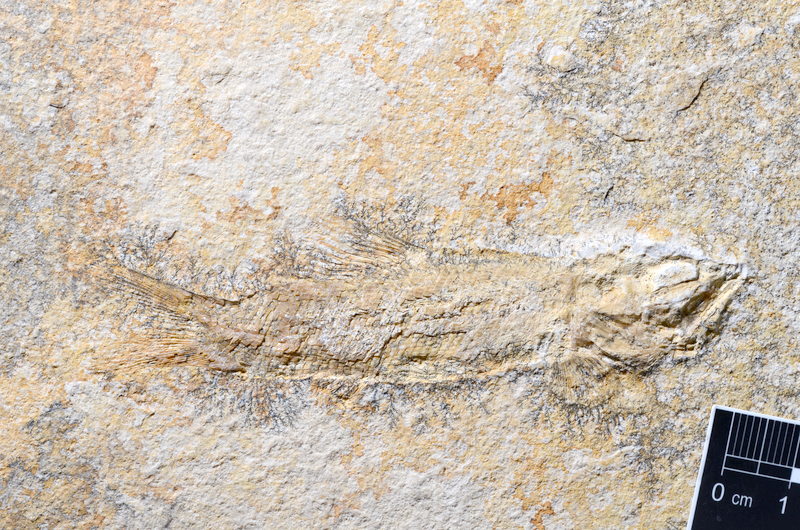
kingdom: Animalia
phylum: Chordata
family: Ophiopsiellidae
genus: Furo
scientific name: Furo longiserratus
